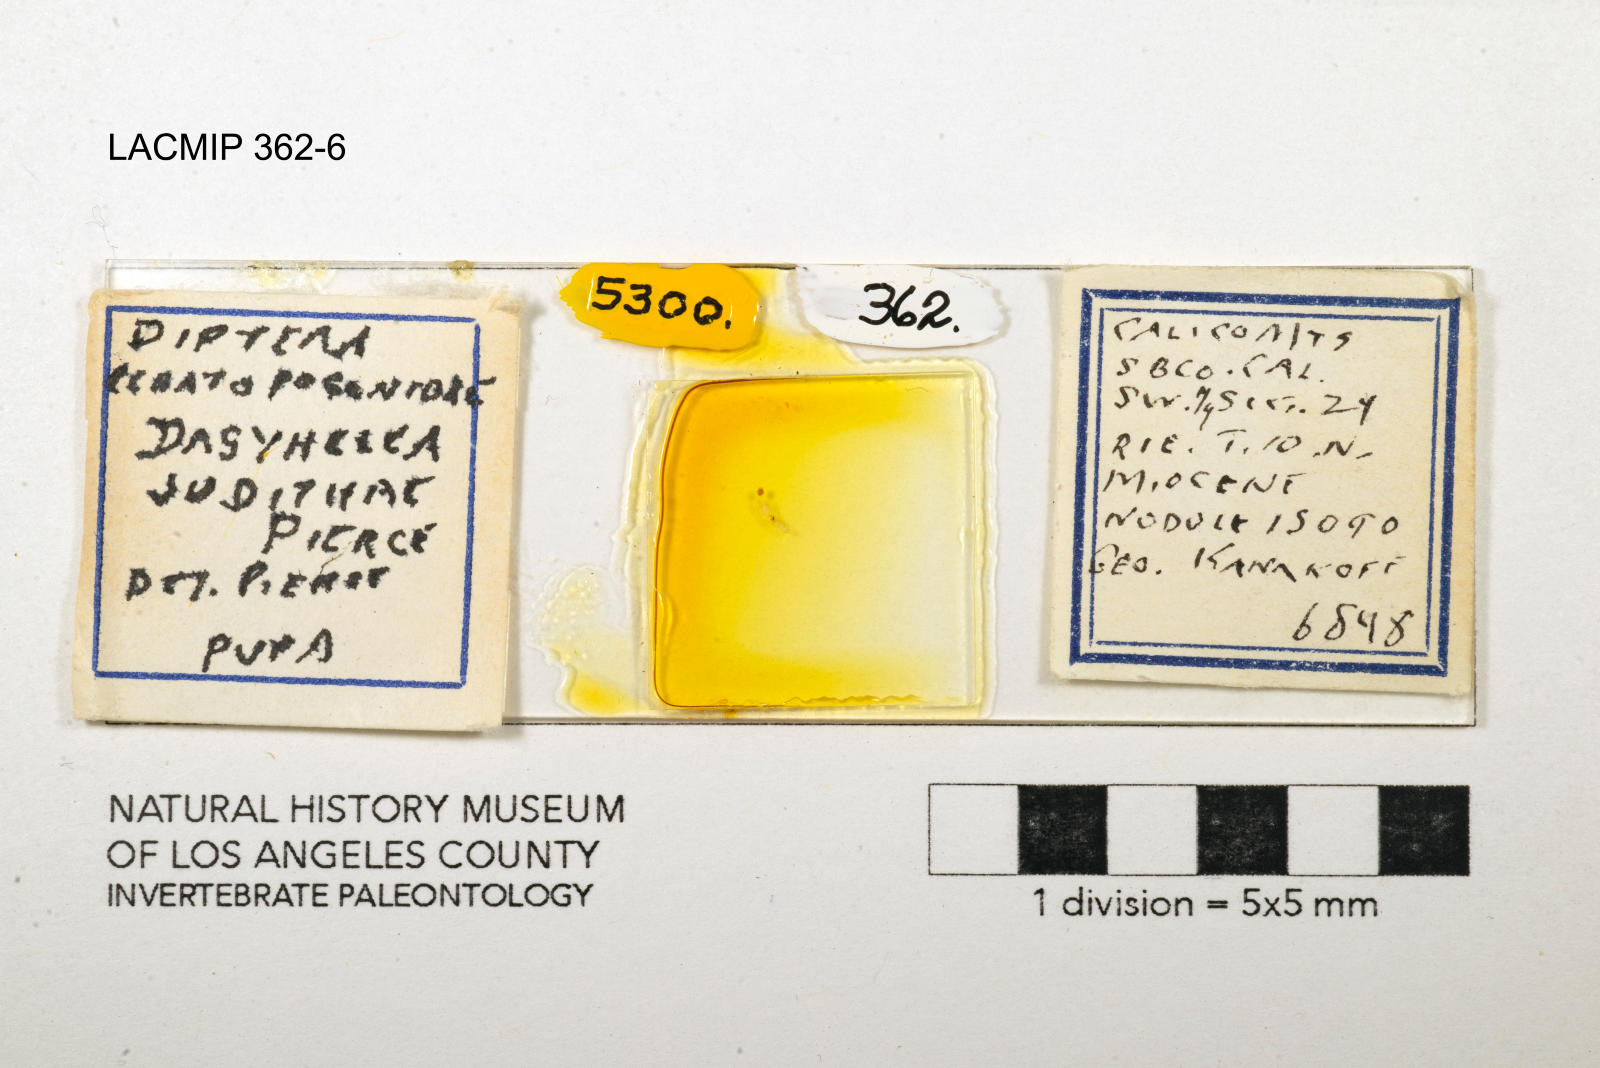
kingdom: Animalia
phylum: Arthropoda
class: Insecta
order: Diptera
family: Ceratopogonidae
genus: Dasyhelea
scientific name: Dasyhelea judithae
